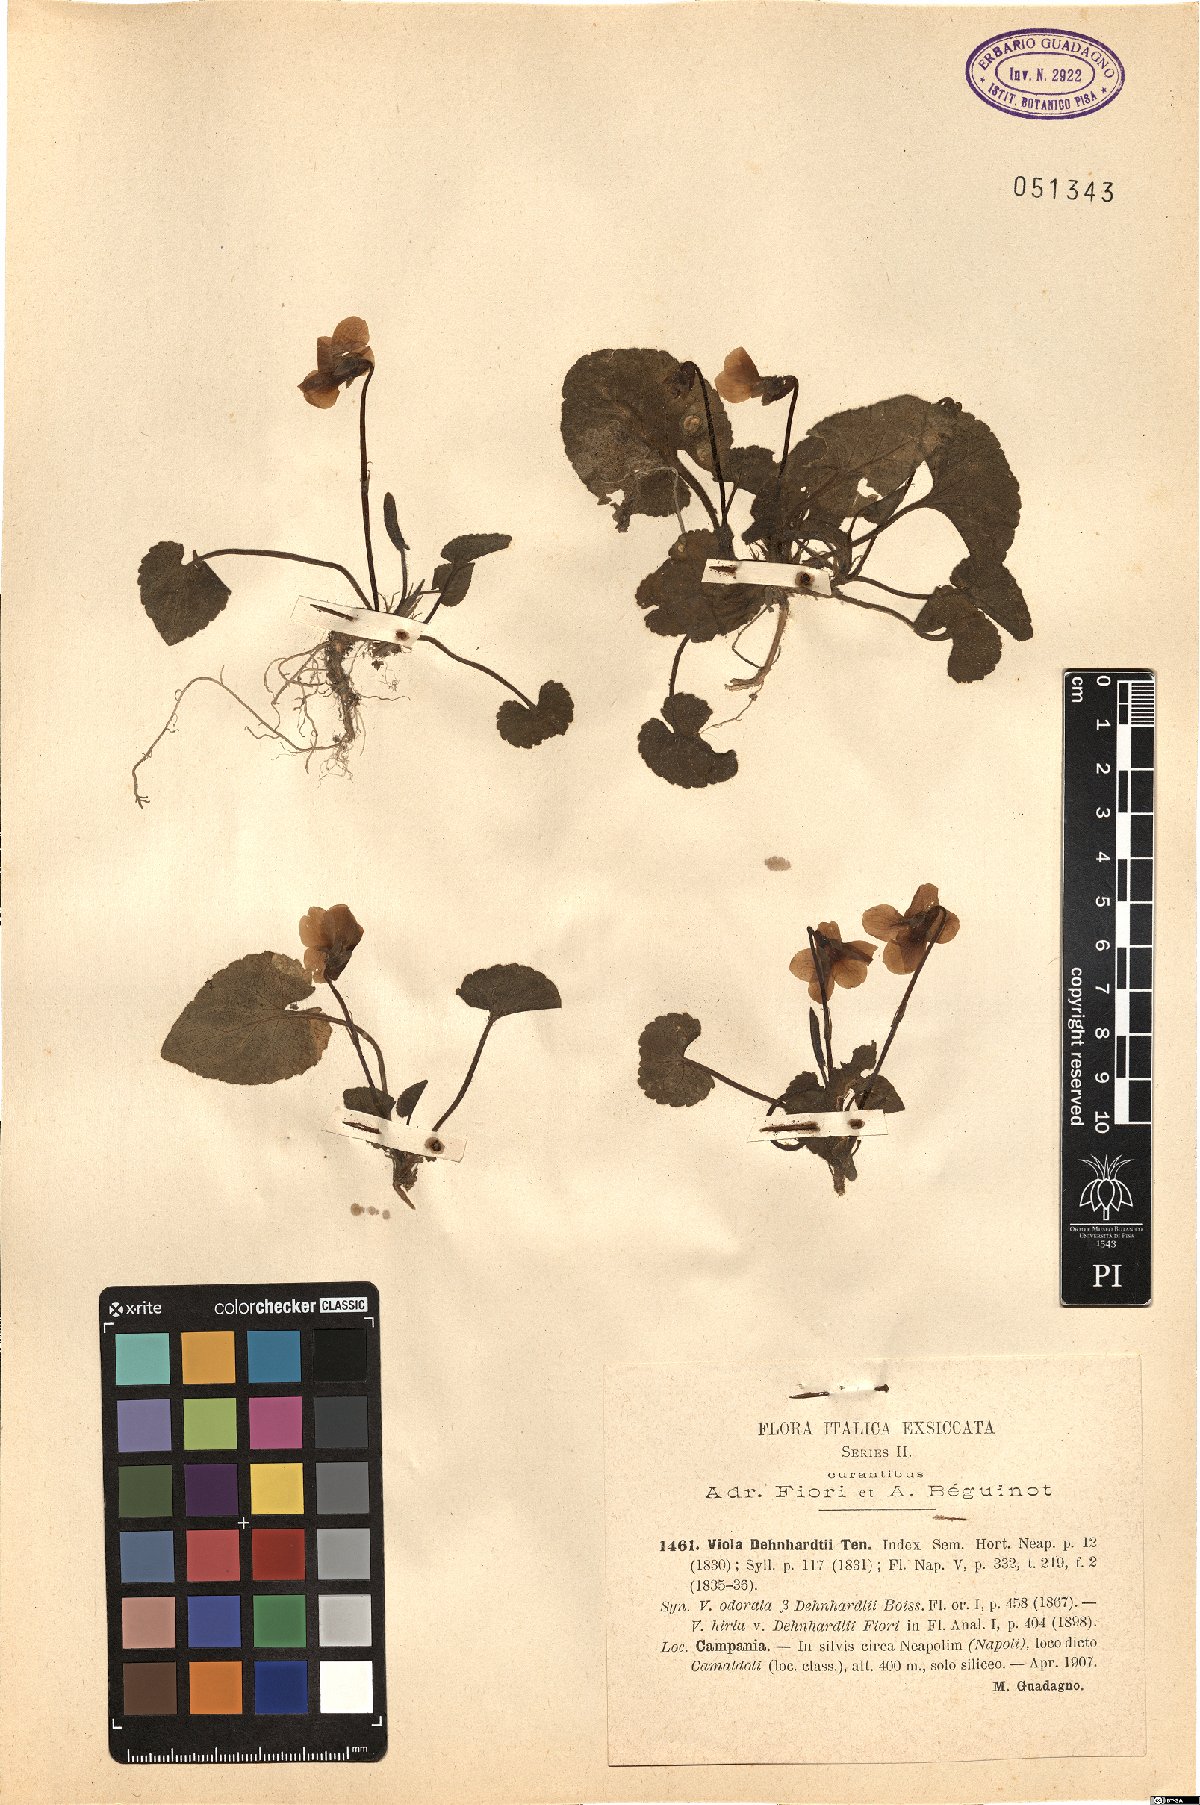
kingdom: Plantae
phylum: Tracheophyta
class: Magnoliopsida
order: Malpighiales
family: Violaceae
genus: Viola
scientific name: Viola alba
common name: White violet
